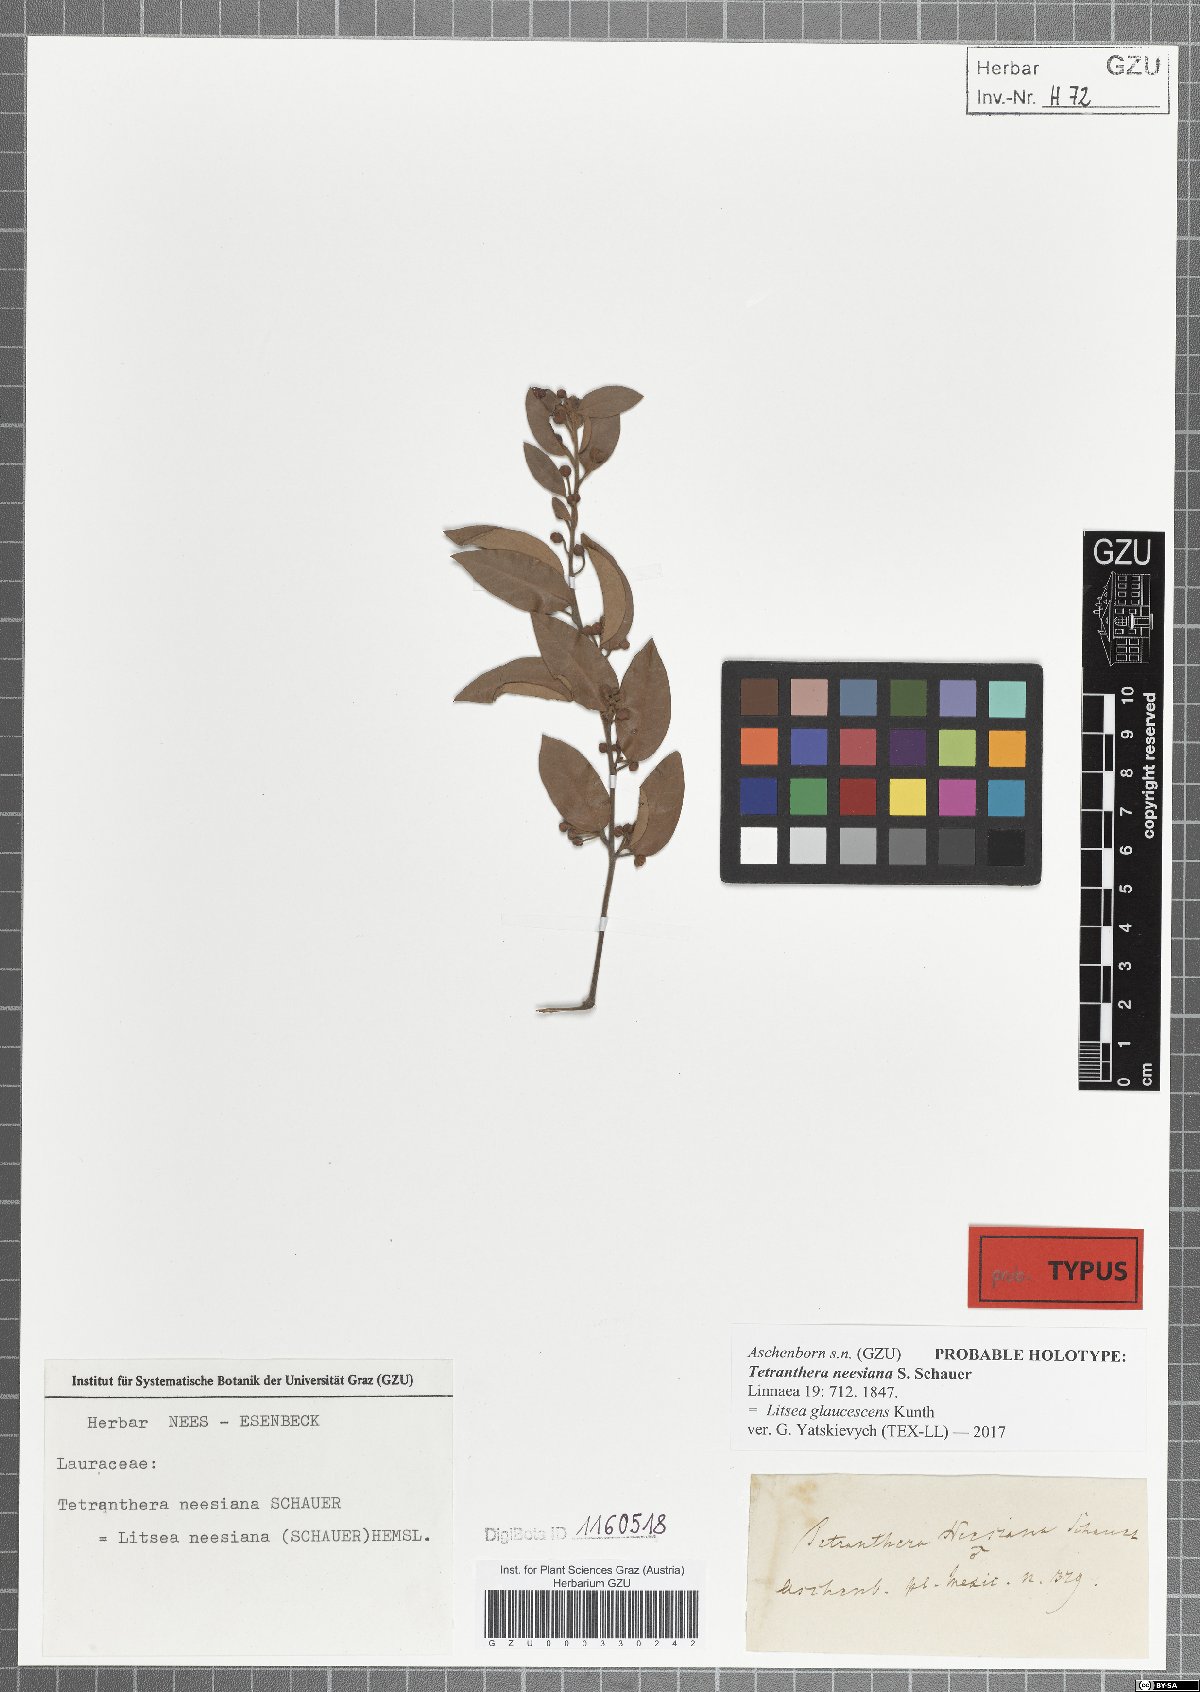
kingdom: Plantae
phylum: Tracheophyta
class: Magnoliopsida
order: Laurales
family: Lauraceae
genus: Licaria
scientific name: Licaria triandra
